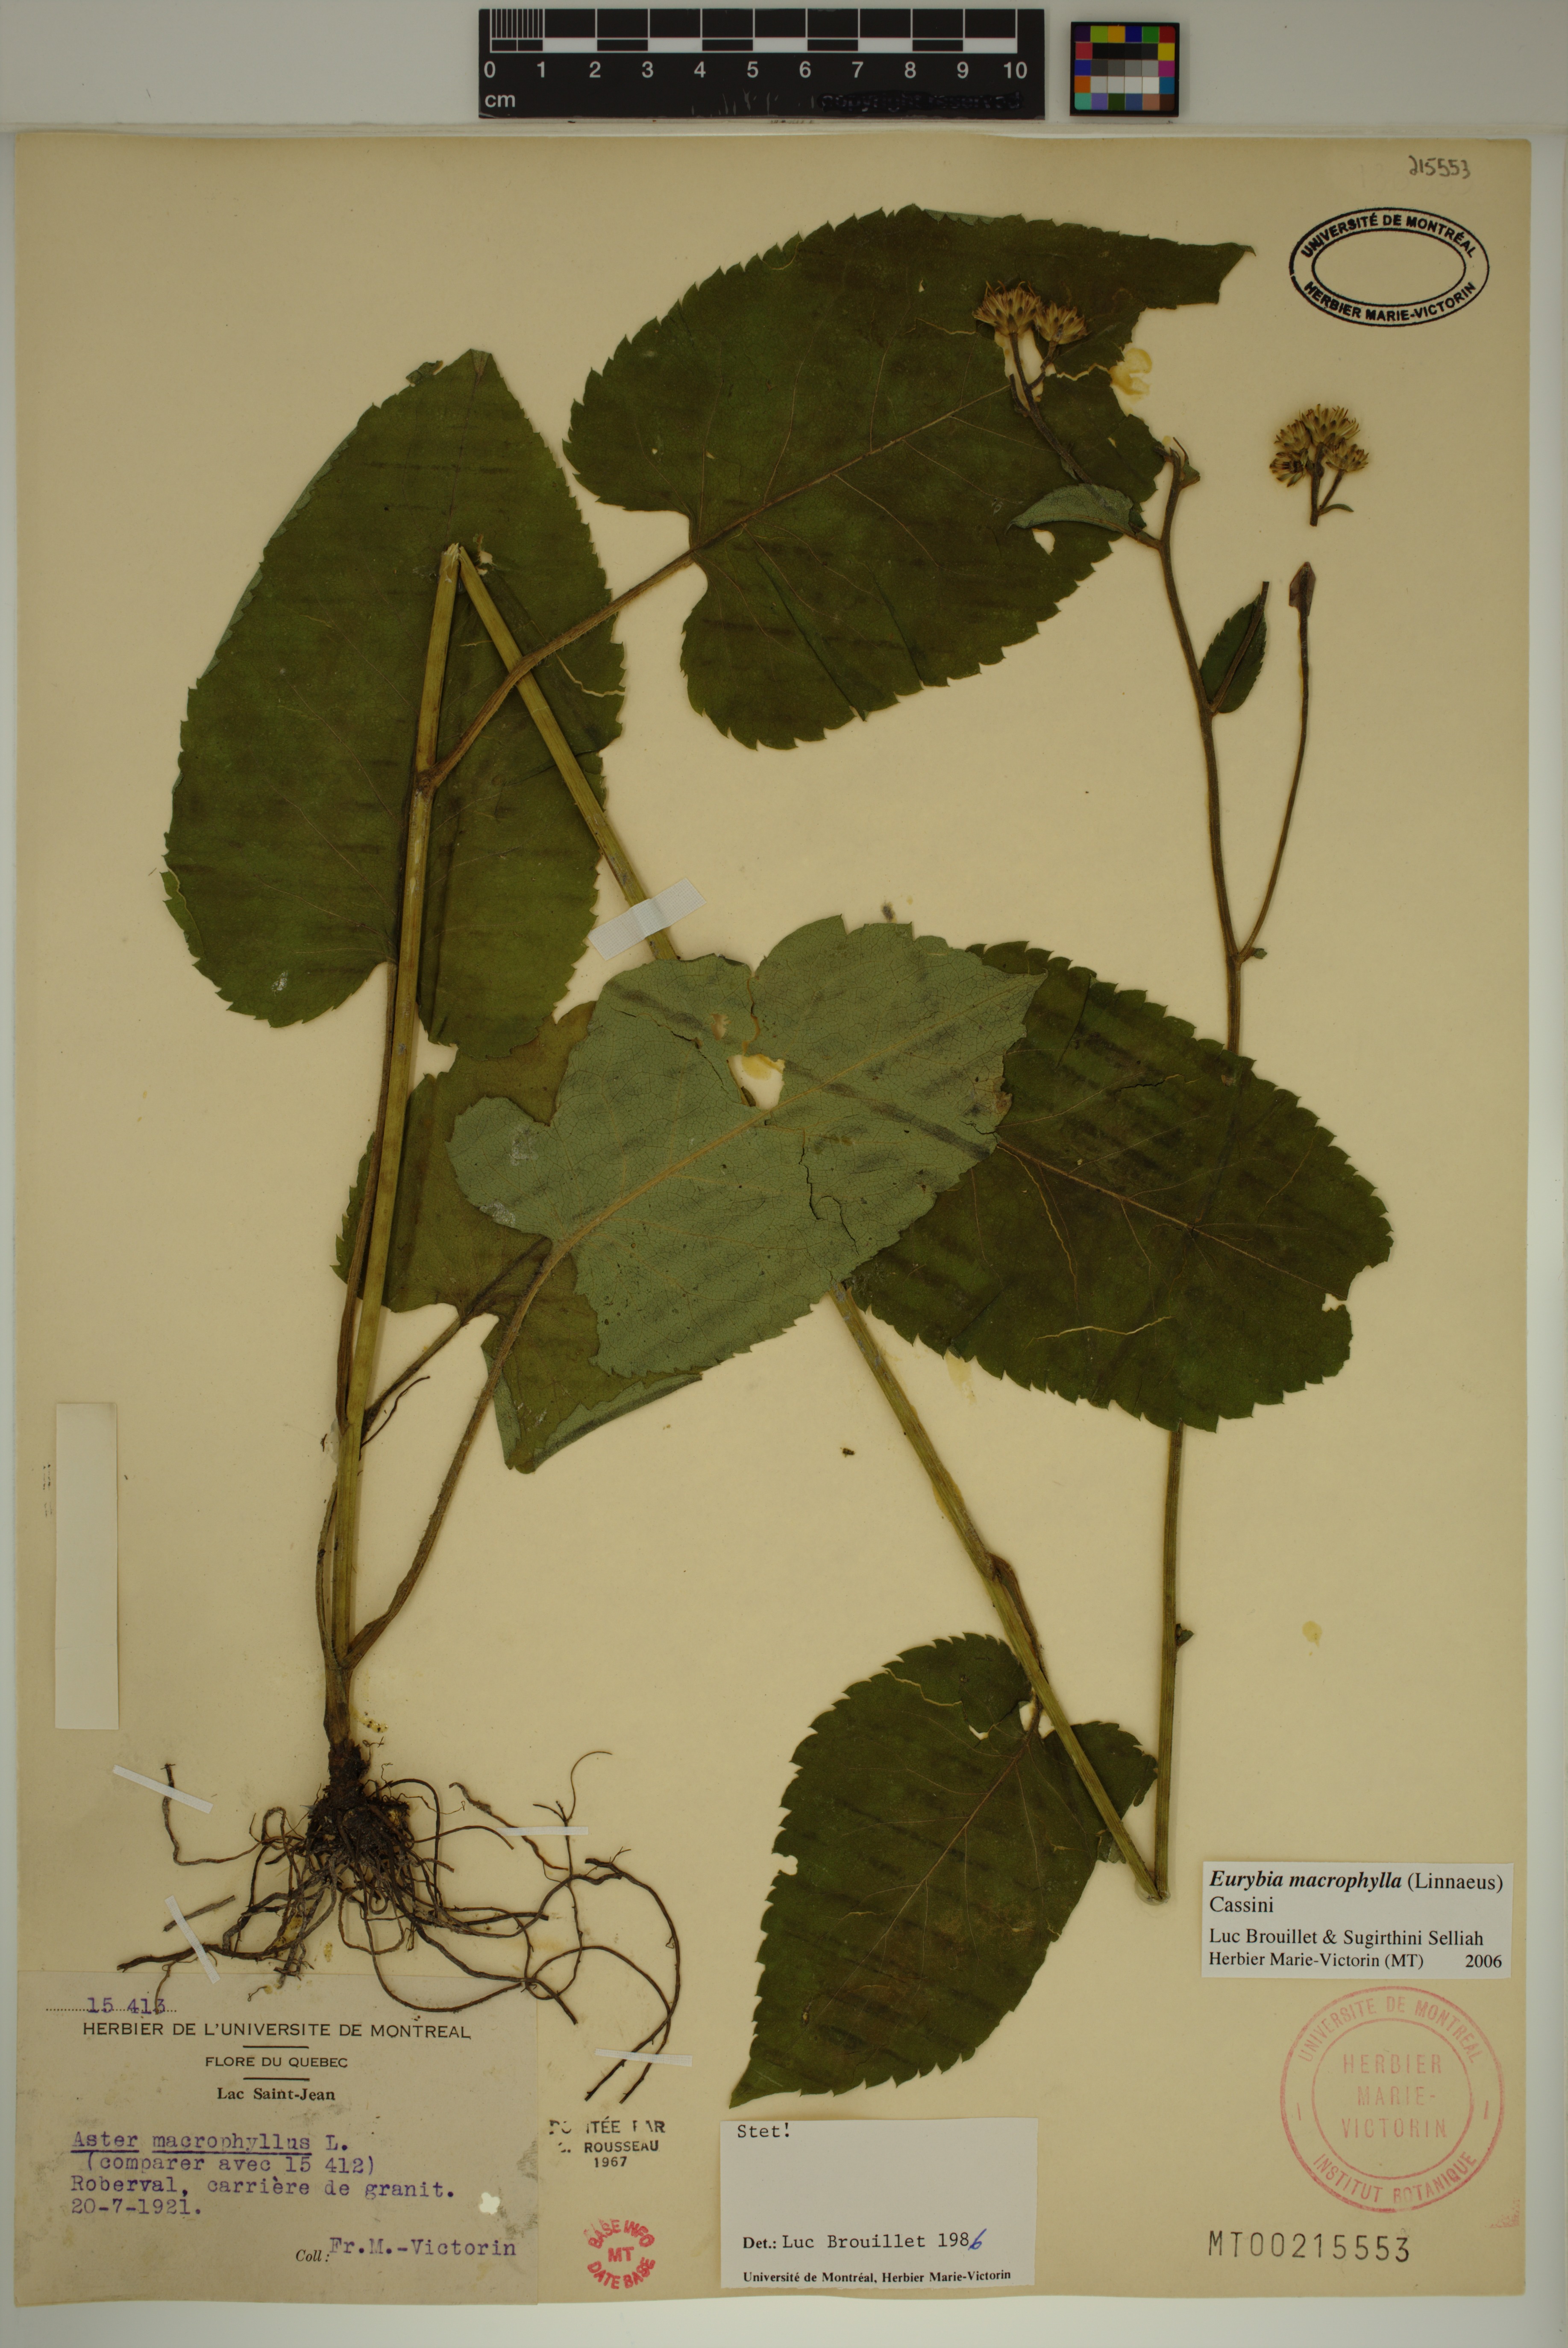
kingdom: Plantae
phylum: Tracheophyta
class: Magnoliopsida
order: Asterales
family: Asteraceae
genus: Eurybia
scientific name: Eurybia macrophylla
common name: Big-leaved aster
